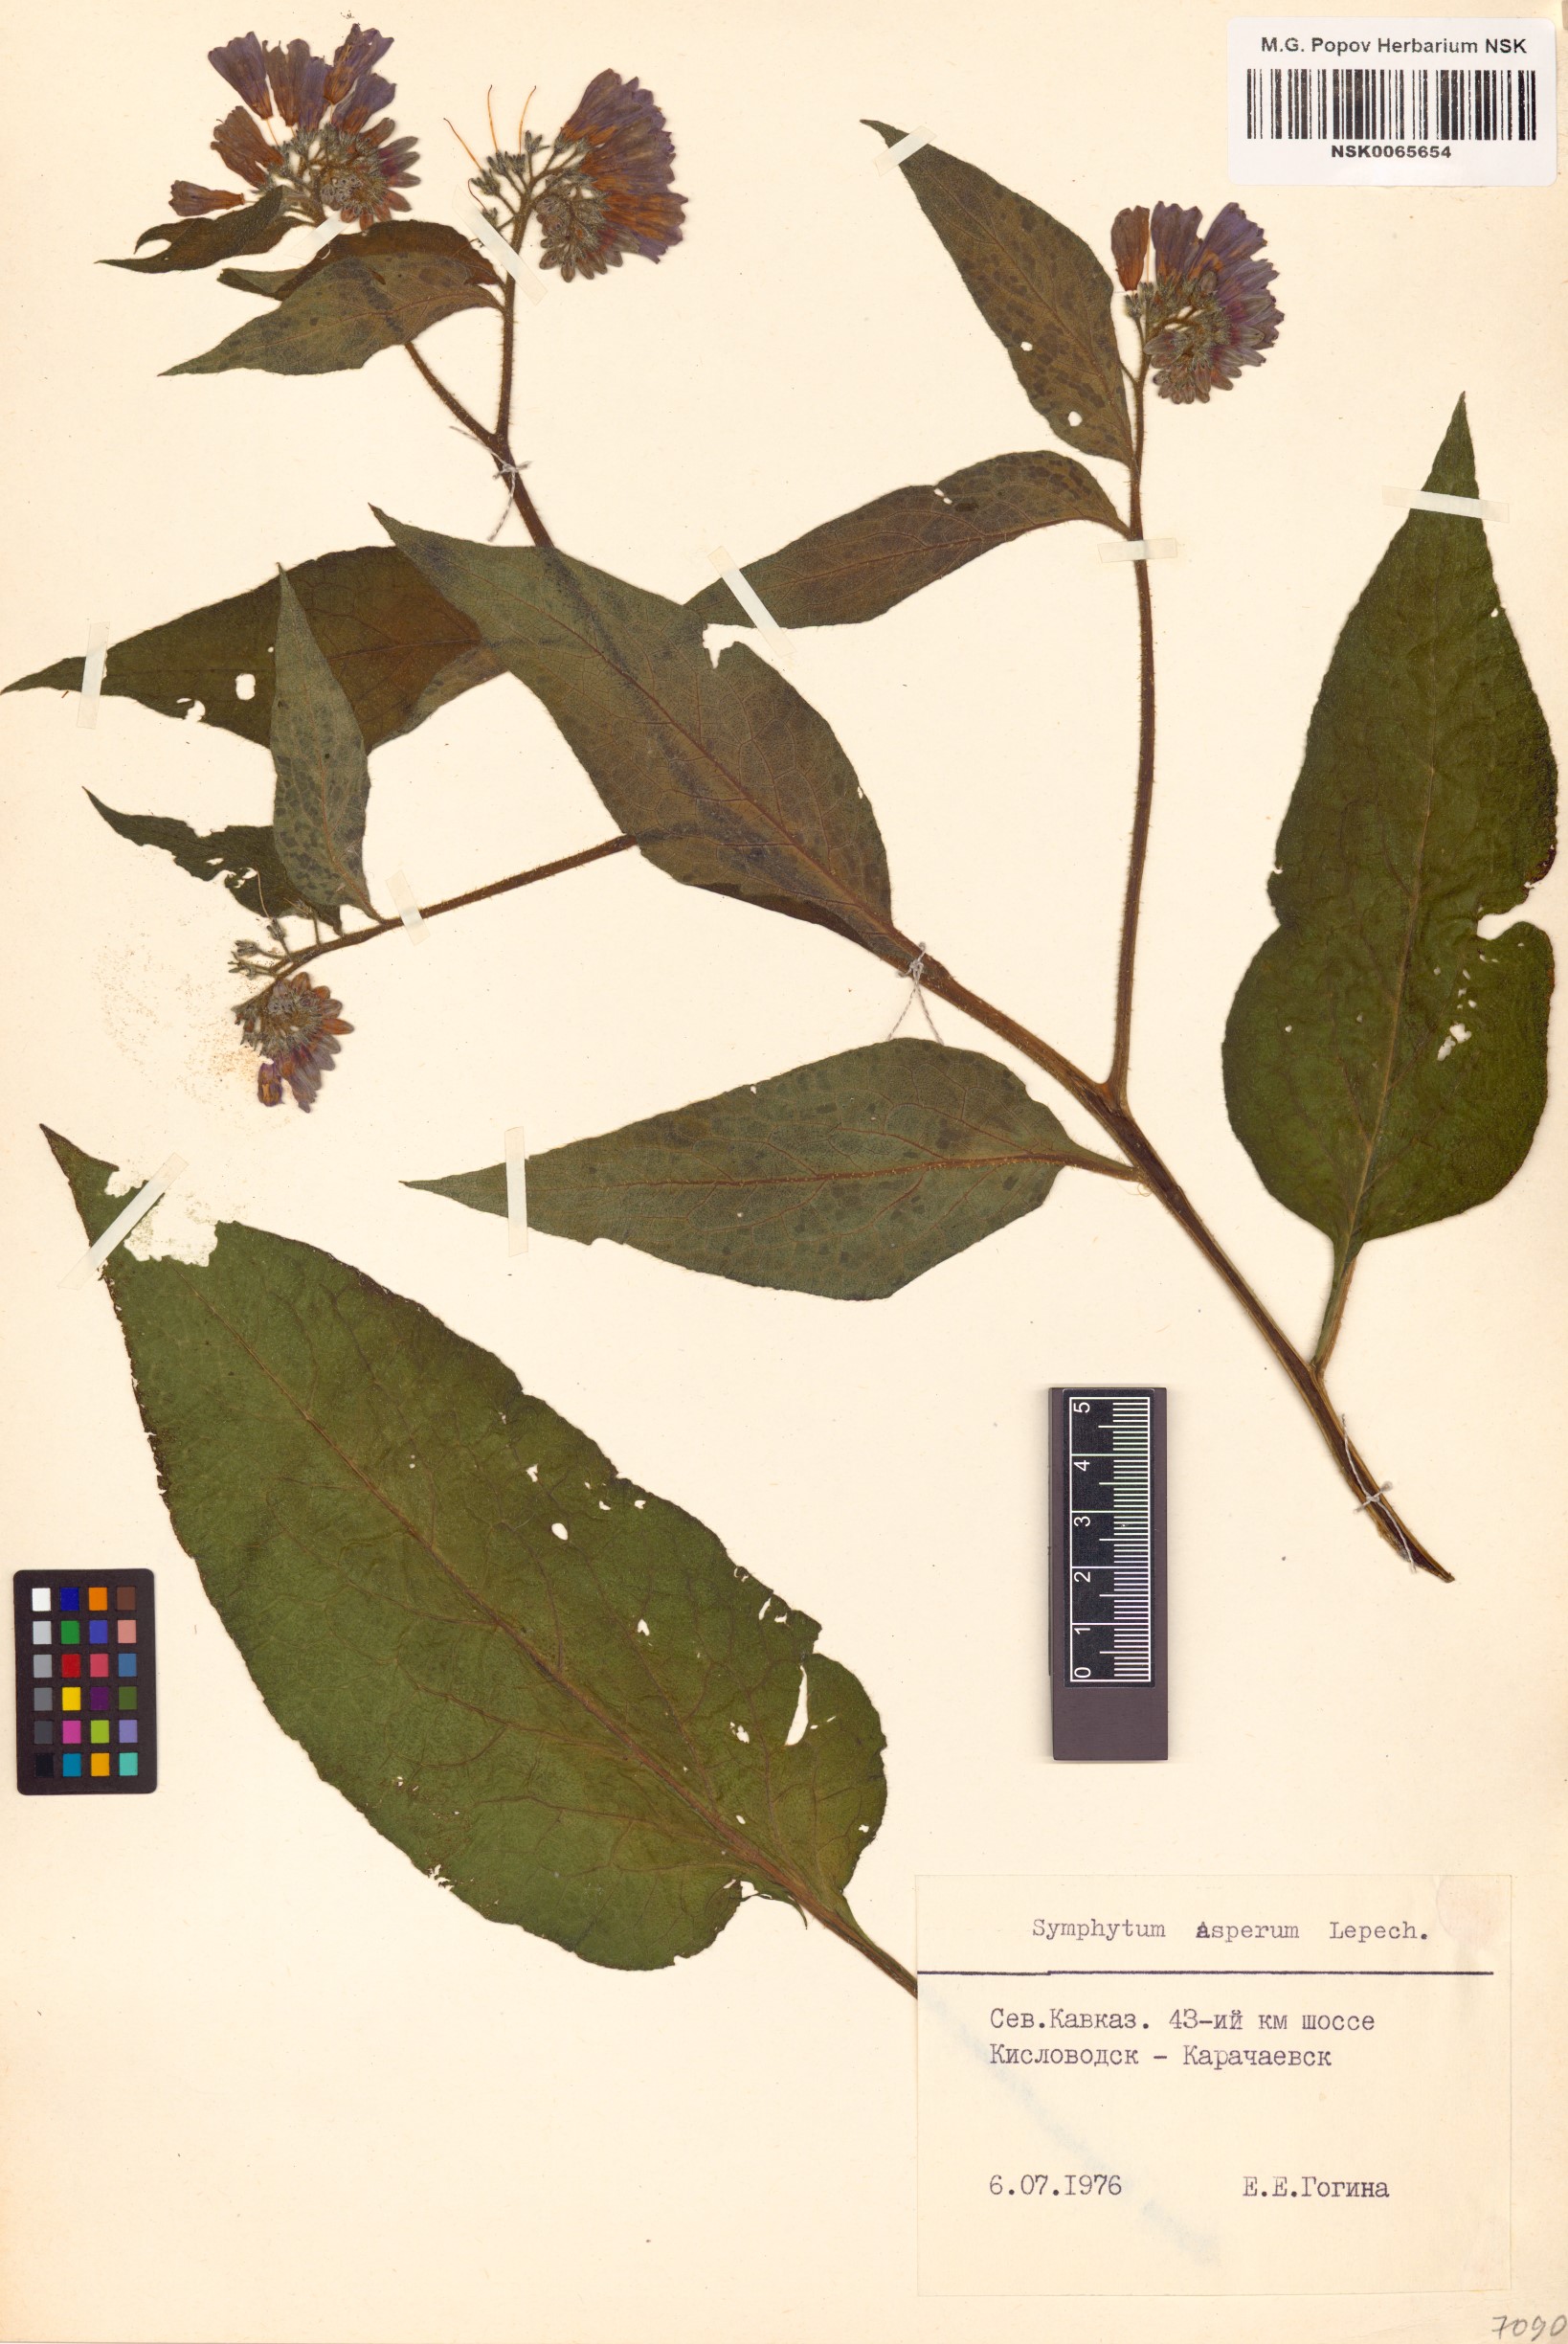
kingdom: Plantae
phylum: Tracheophyta
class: Magnoliopsida
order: Boraginales
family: Boraginaceae
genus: Symphytum
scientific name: Symphytum asperum
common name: Prickly comfrey
